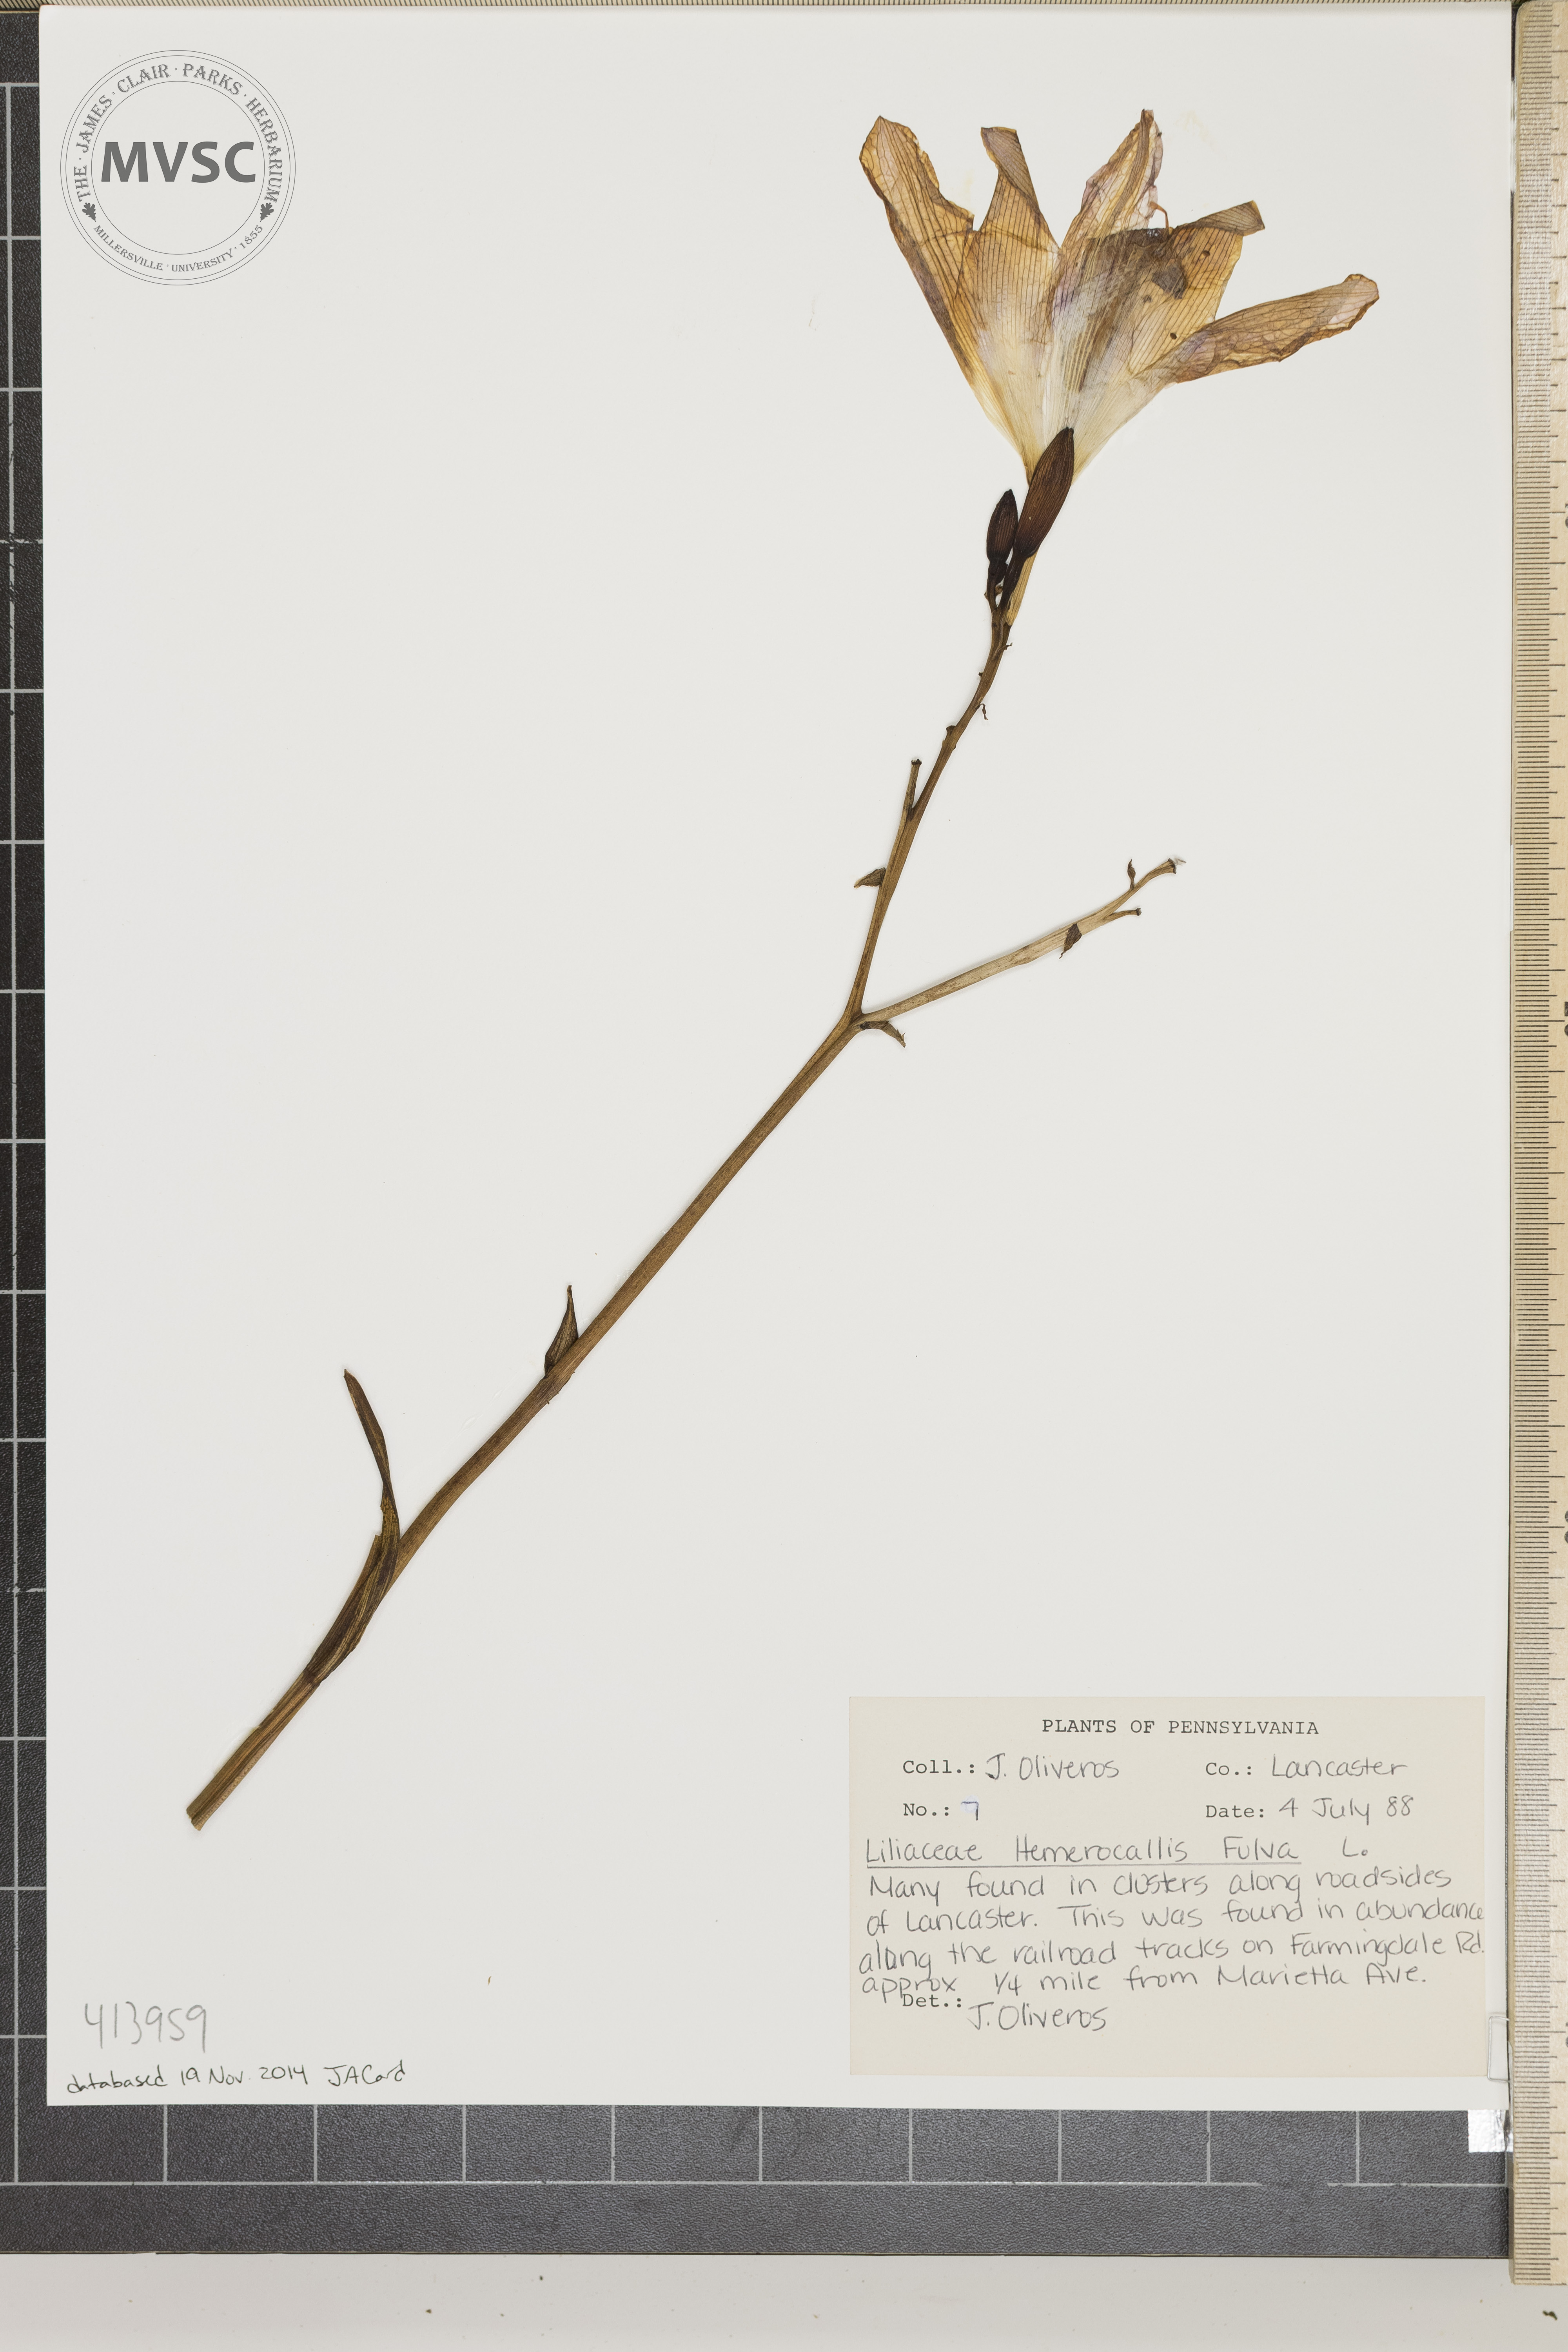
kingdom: Plantae
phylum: Tracheophyta
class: Liliopsida
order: Asparagales
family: Asphodelaceae
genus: Hemerocallis
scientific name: Hemerocallis fulva
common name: Orange day-lily
